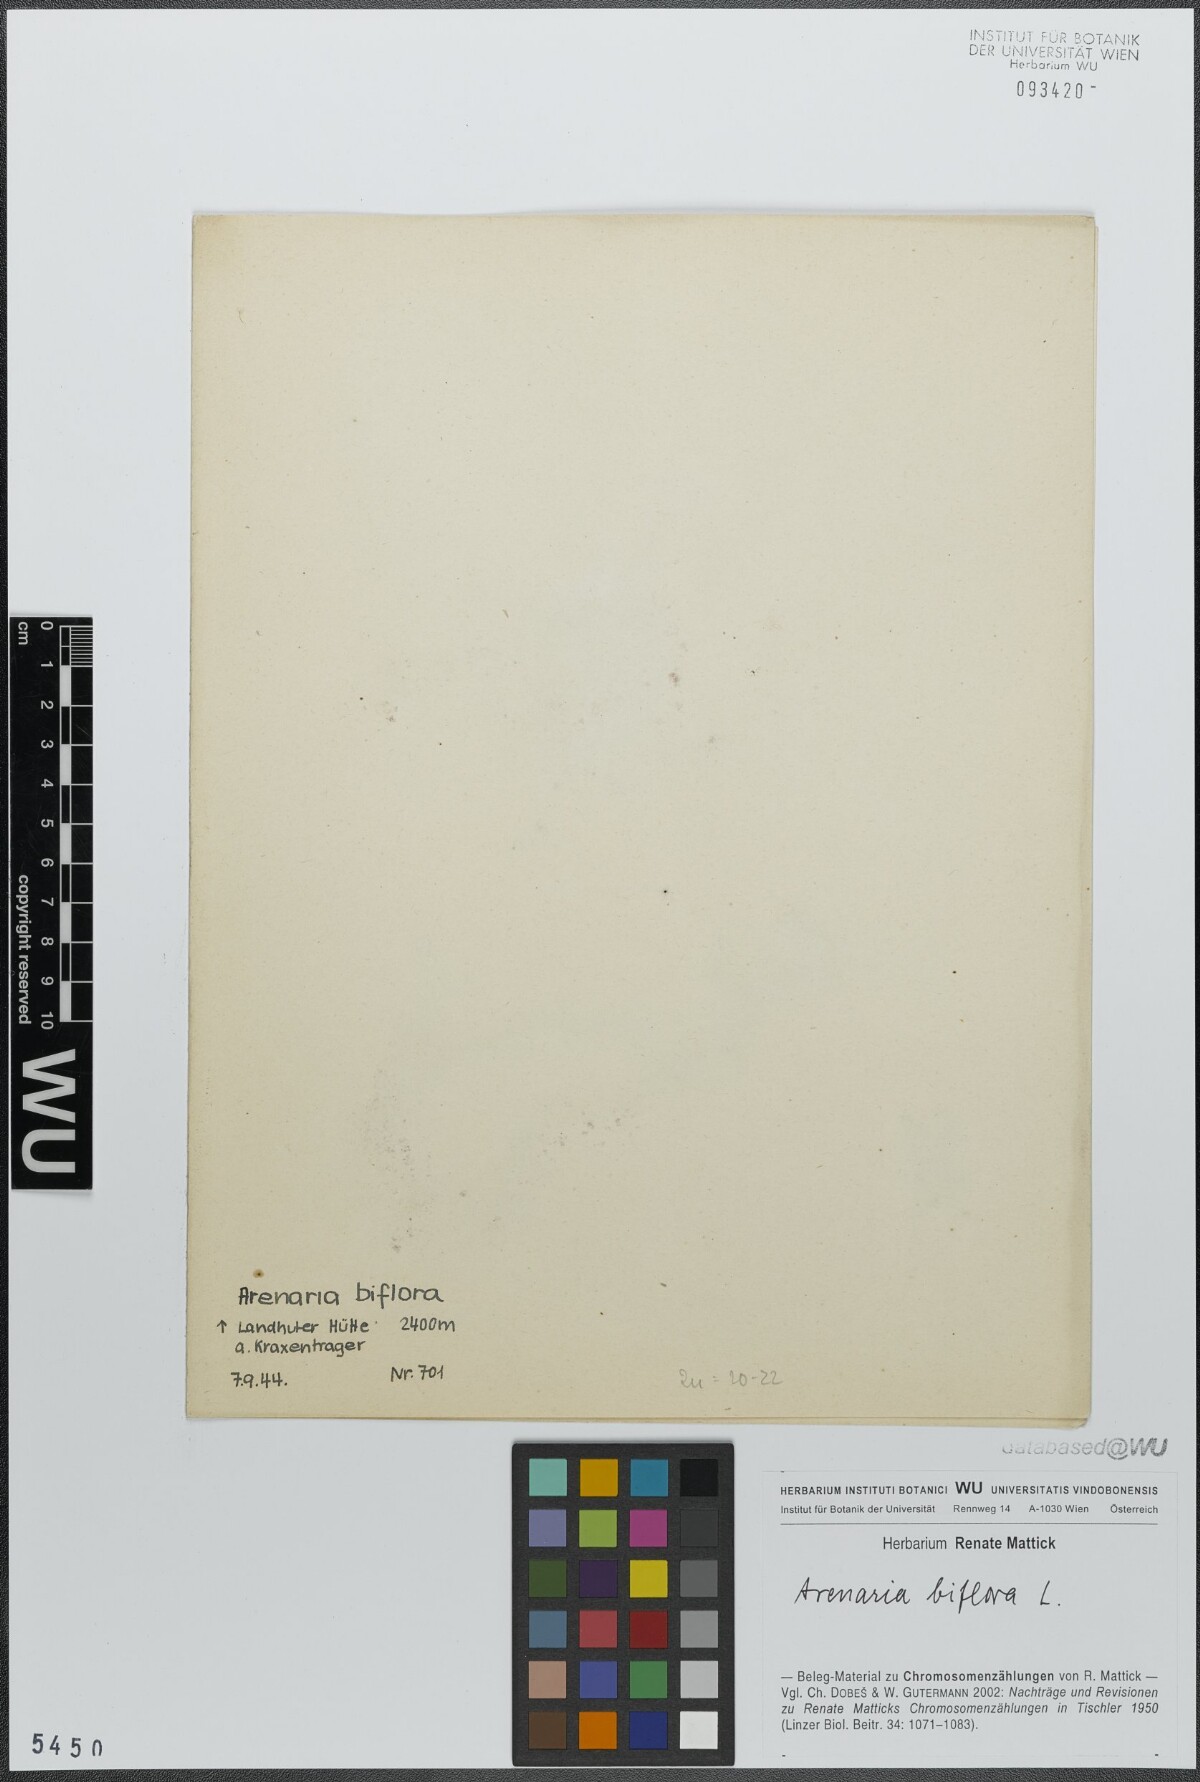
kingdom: Plantae
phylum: Tracheophyta
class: Magnoliopsida
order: Caryophyllales
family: Caryophyllaceae
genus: Arenaria
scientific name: Arenaria biflora
